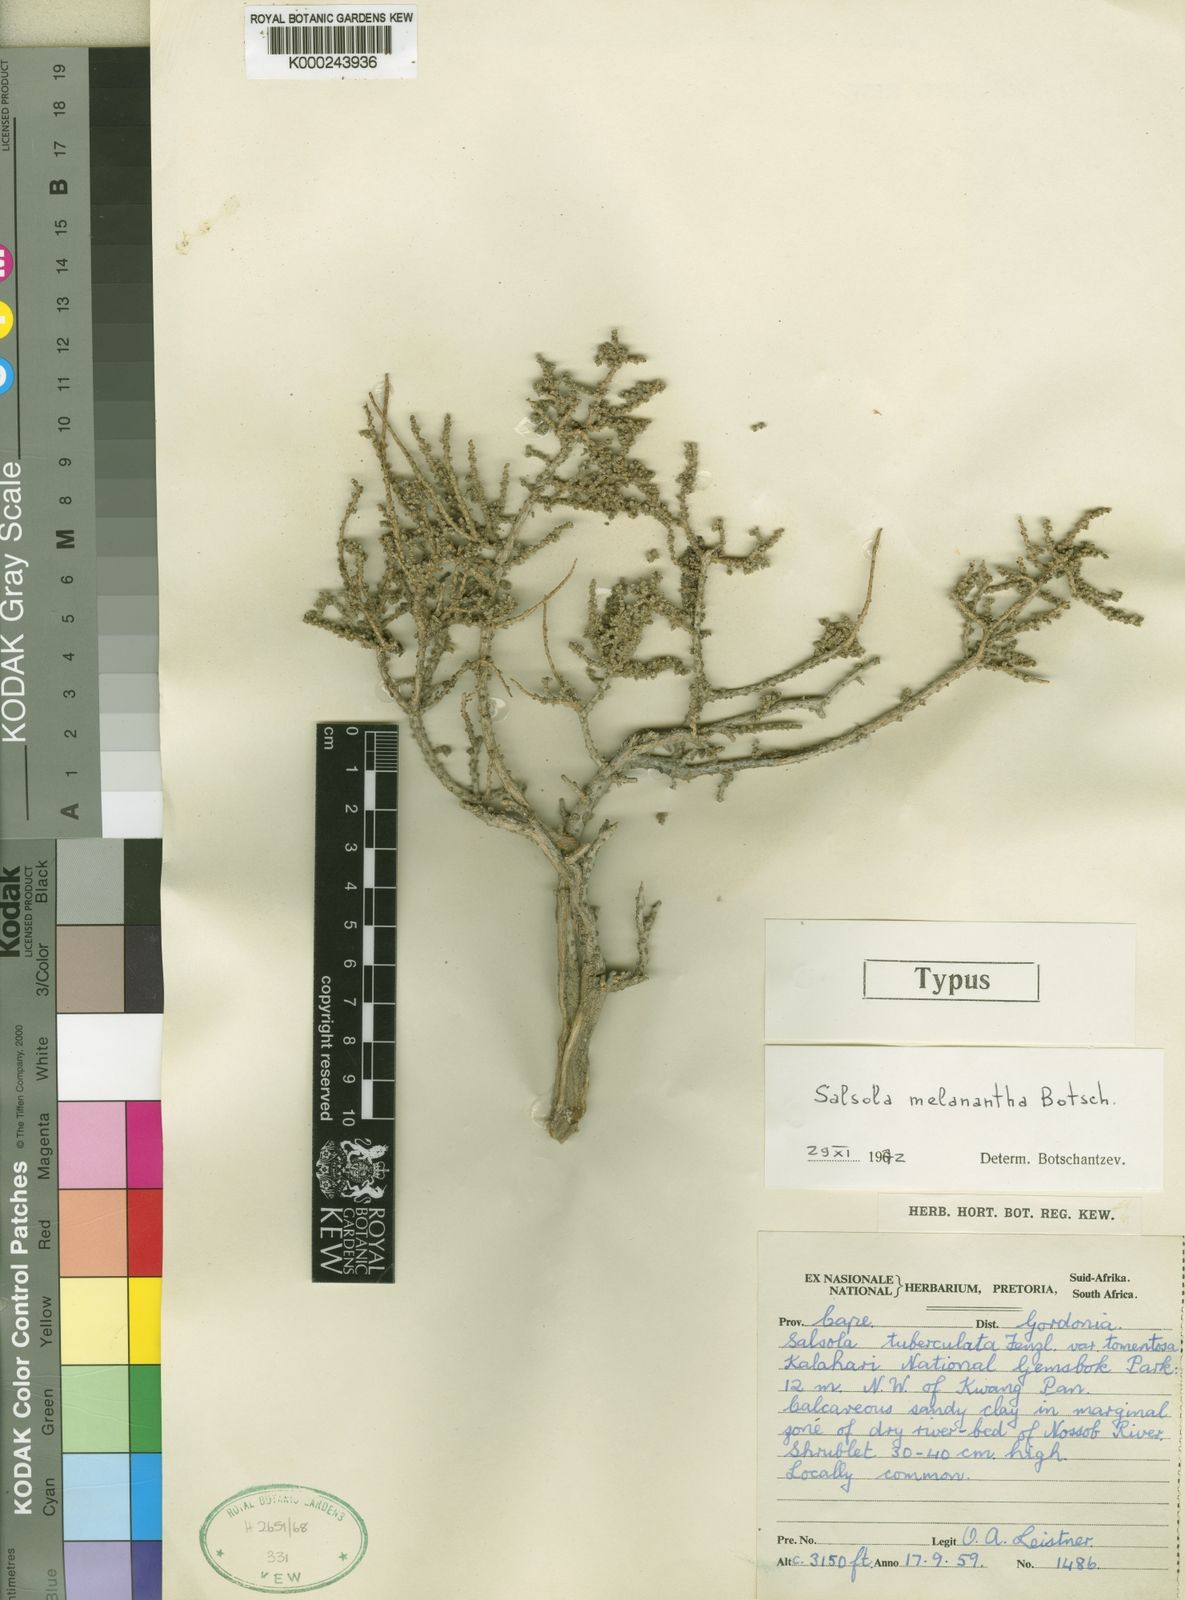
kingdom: Plantae
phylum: Tracheophyta
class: Magnoliopsida
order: Caryophyllales
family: Amaranthaceae
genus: Caroxylon
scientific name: Caroxylon melananthum
